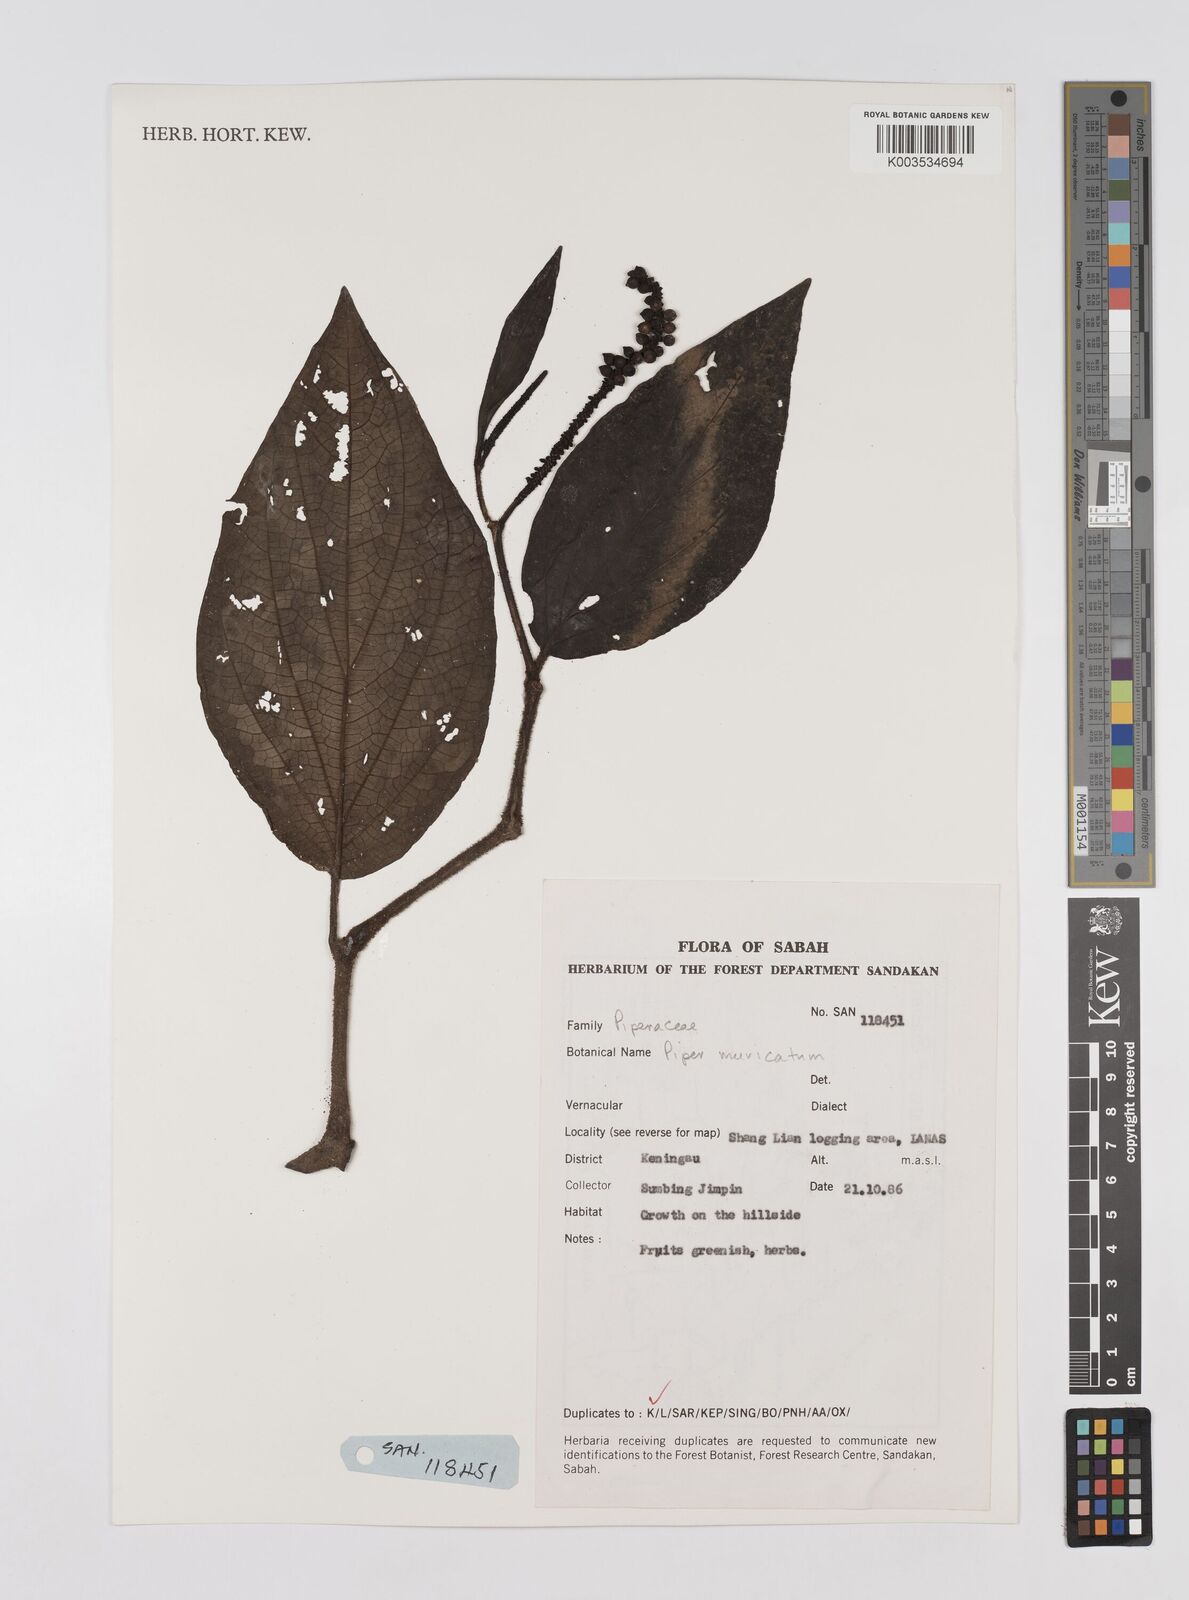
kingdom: Plantae
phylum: Tracheophyta
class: Magnoliopsida
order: Piperales
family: Piperaceae
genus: Piper
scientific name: Piper muricatum
